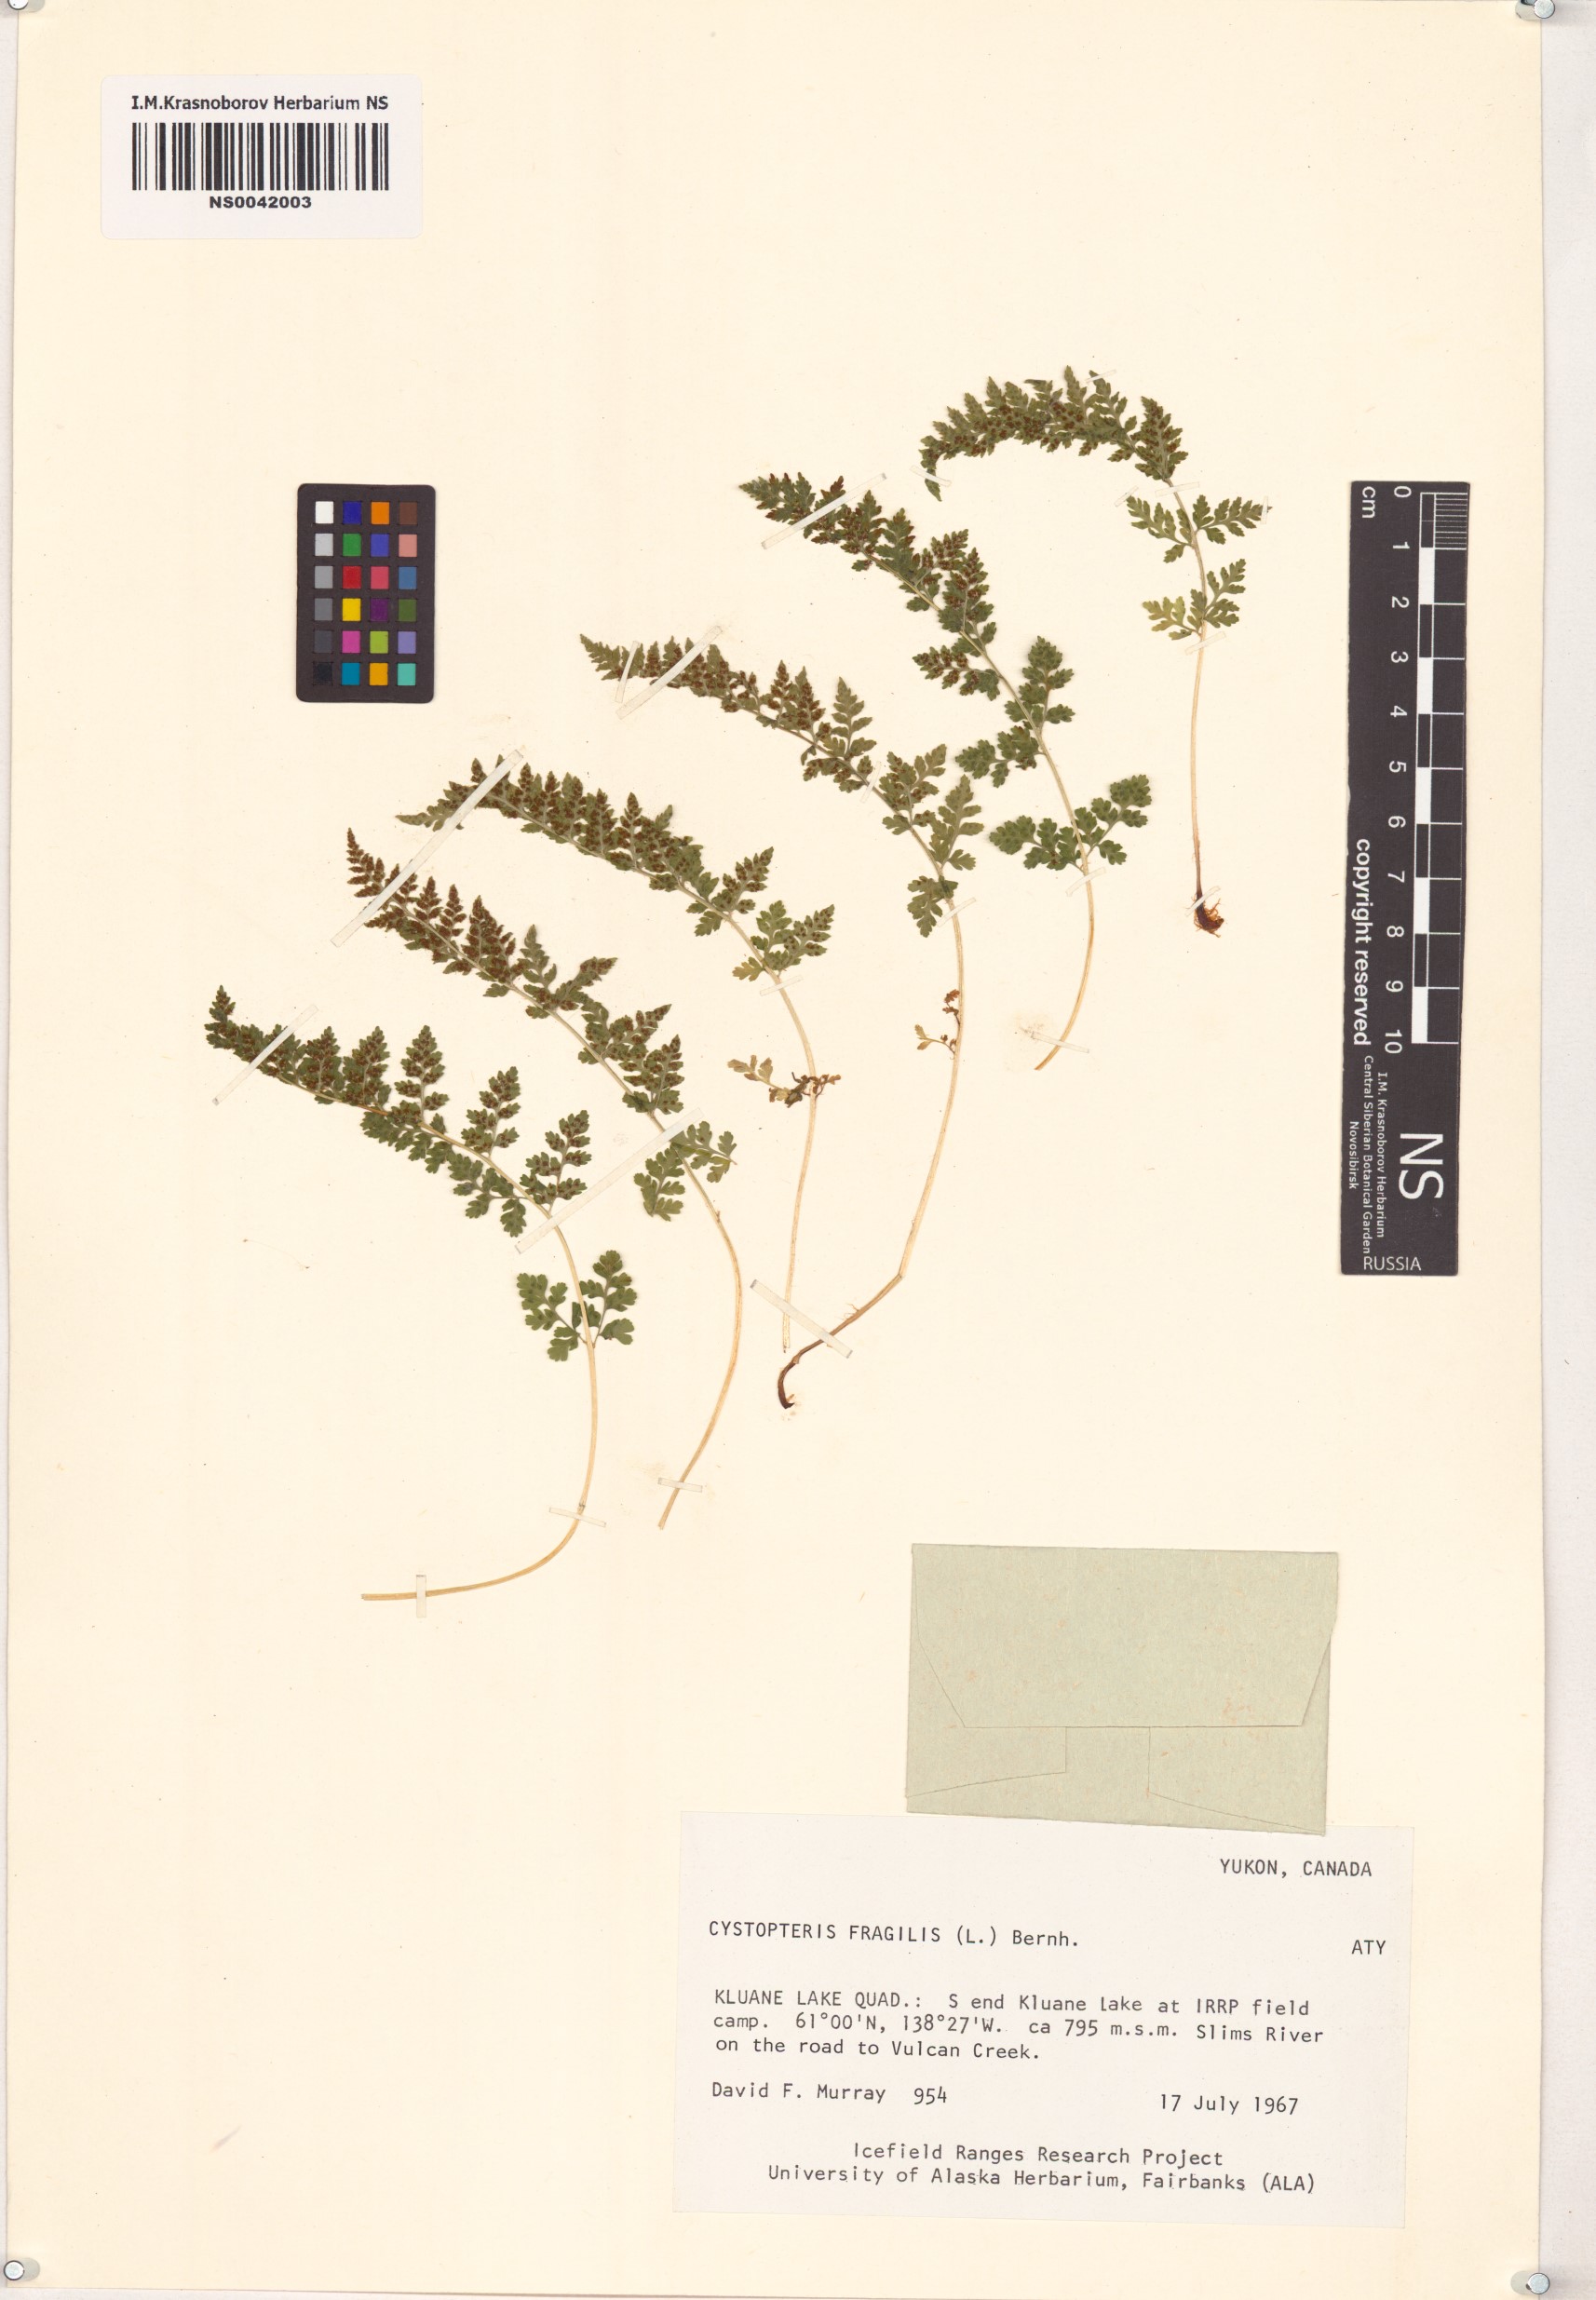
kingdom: Plantae
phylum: Tracheophyta
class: Polypodiopsida
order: Polypodiales
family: Cystopteridaceae
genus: Cystopteris
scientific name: Cystopteris fragilis
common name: Brittle bladder fern
